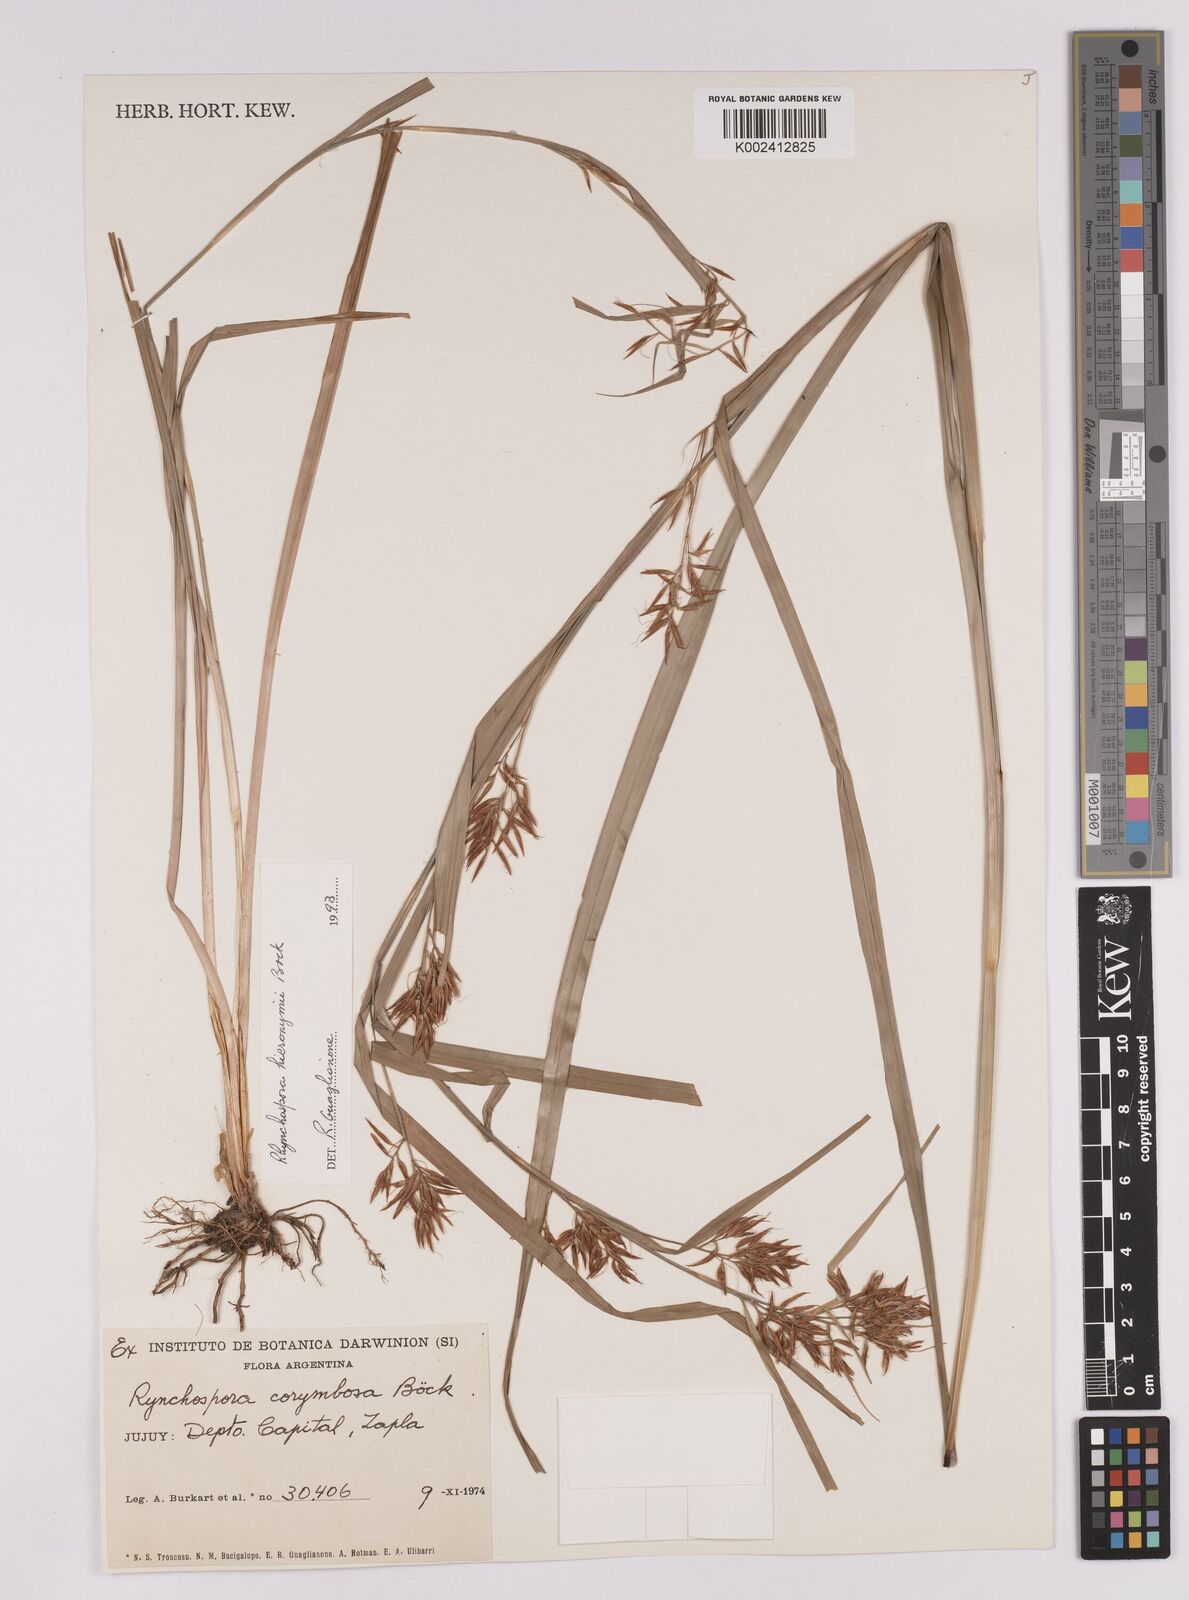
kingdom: Plantae
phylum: Tracheophyta
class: Liliopsida
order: Poales
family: Cyperaceae
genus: Rhynchospora
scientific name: Rhynchospora hieronymi
